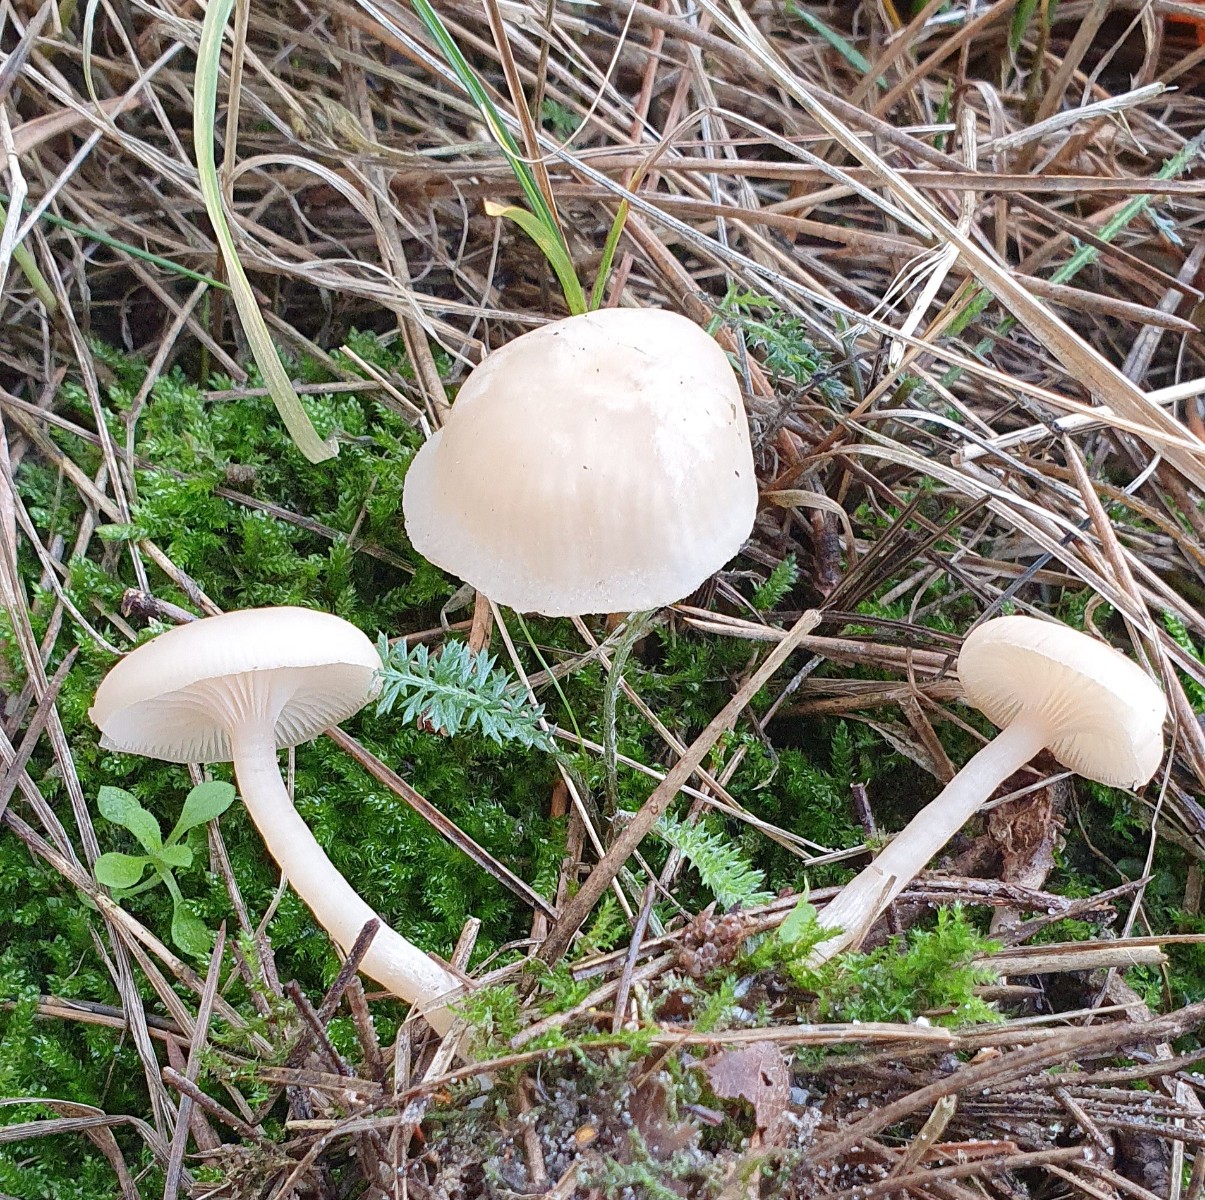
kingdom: Fungi
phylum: Basidiomycota
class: Agaricomycetes
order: Agaricales
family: Tricholomataceae
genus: Clitocybe
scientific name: Clitocybe fragrans
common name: vellugtende tragthat
